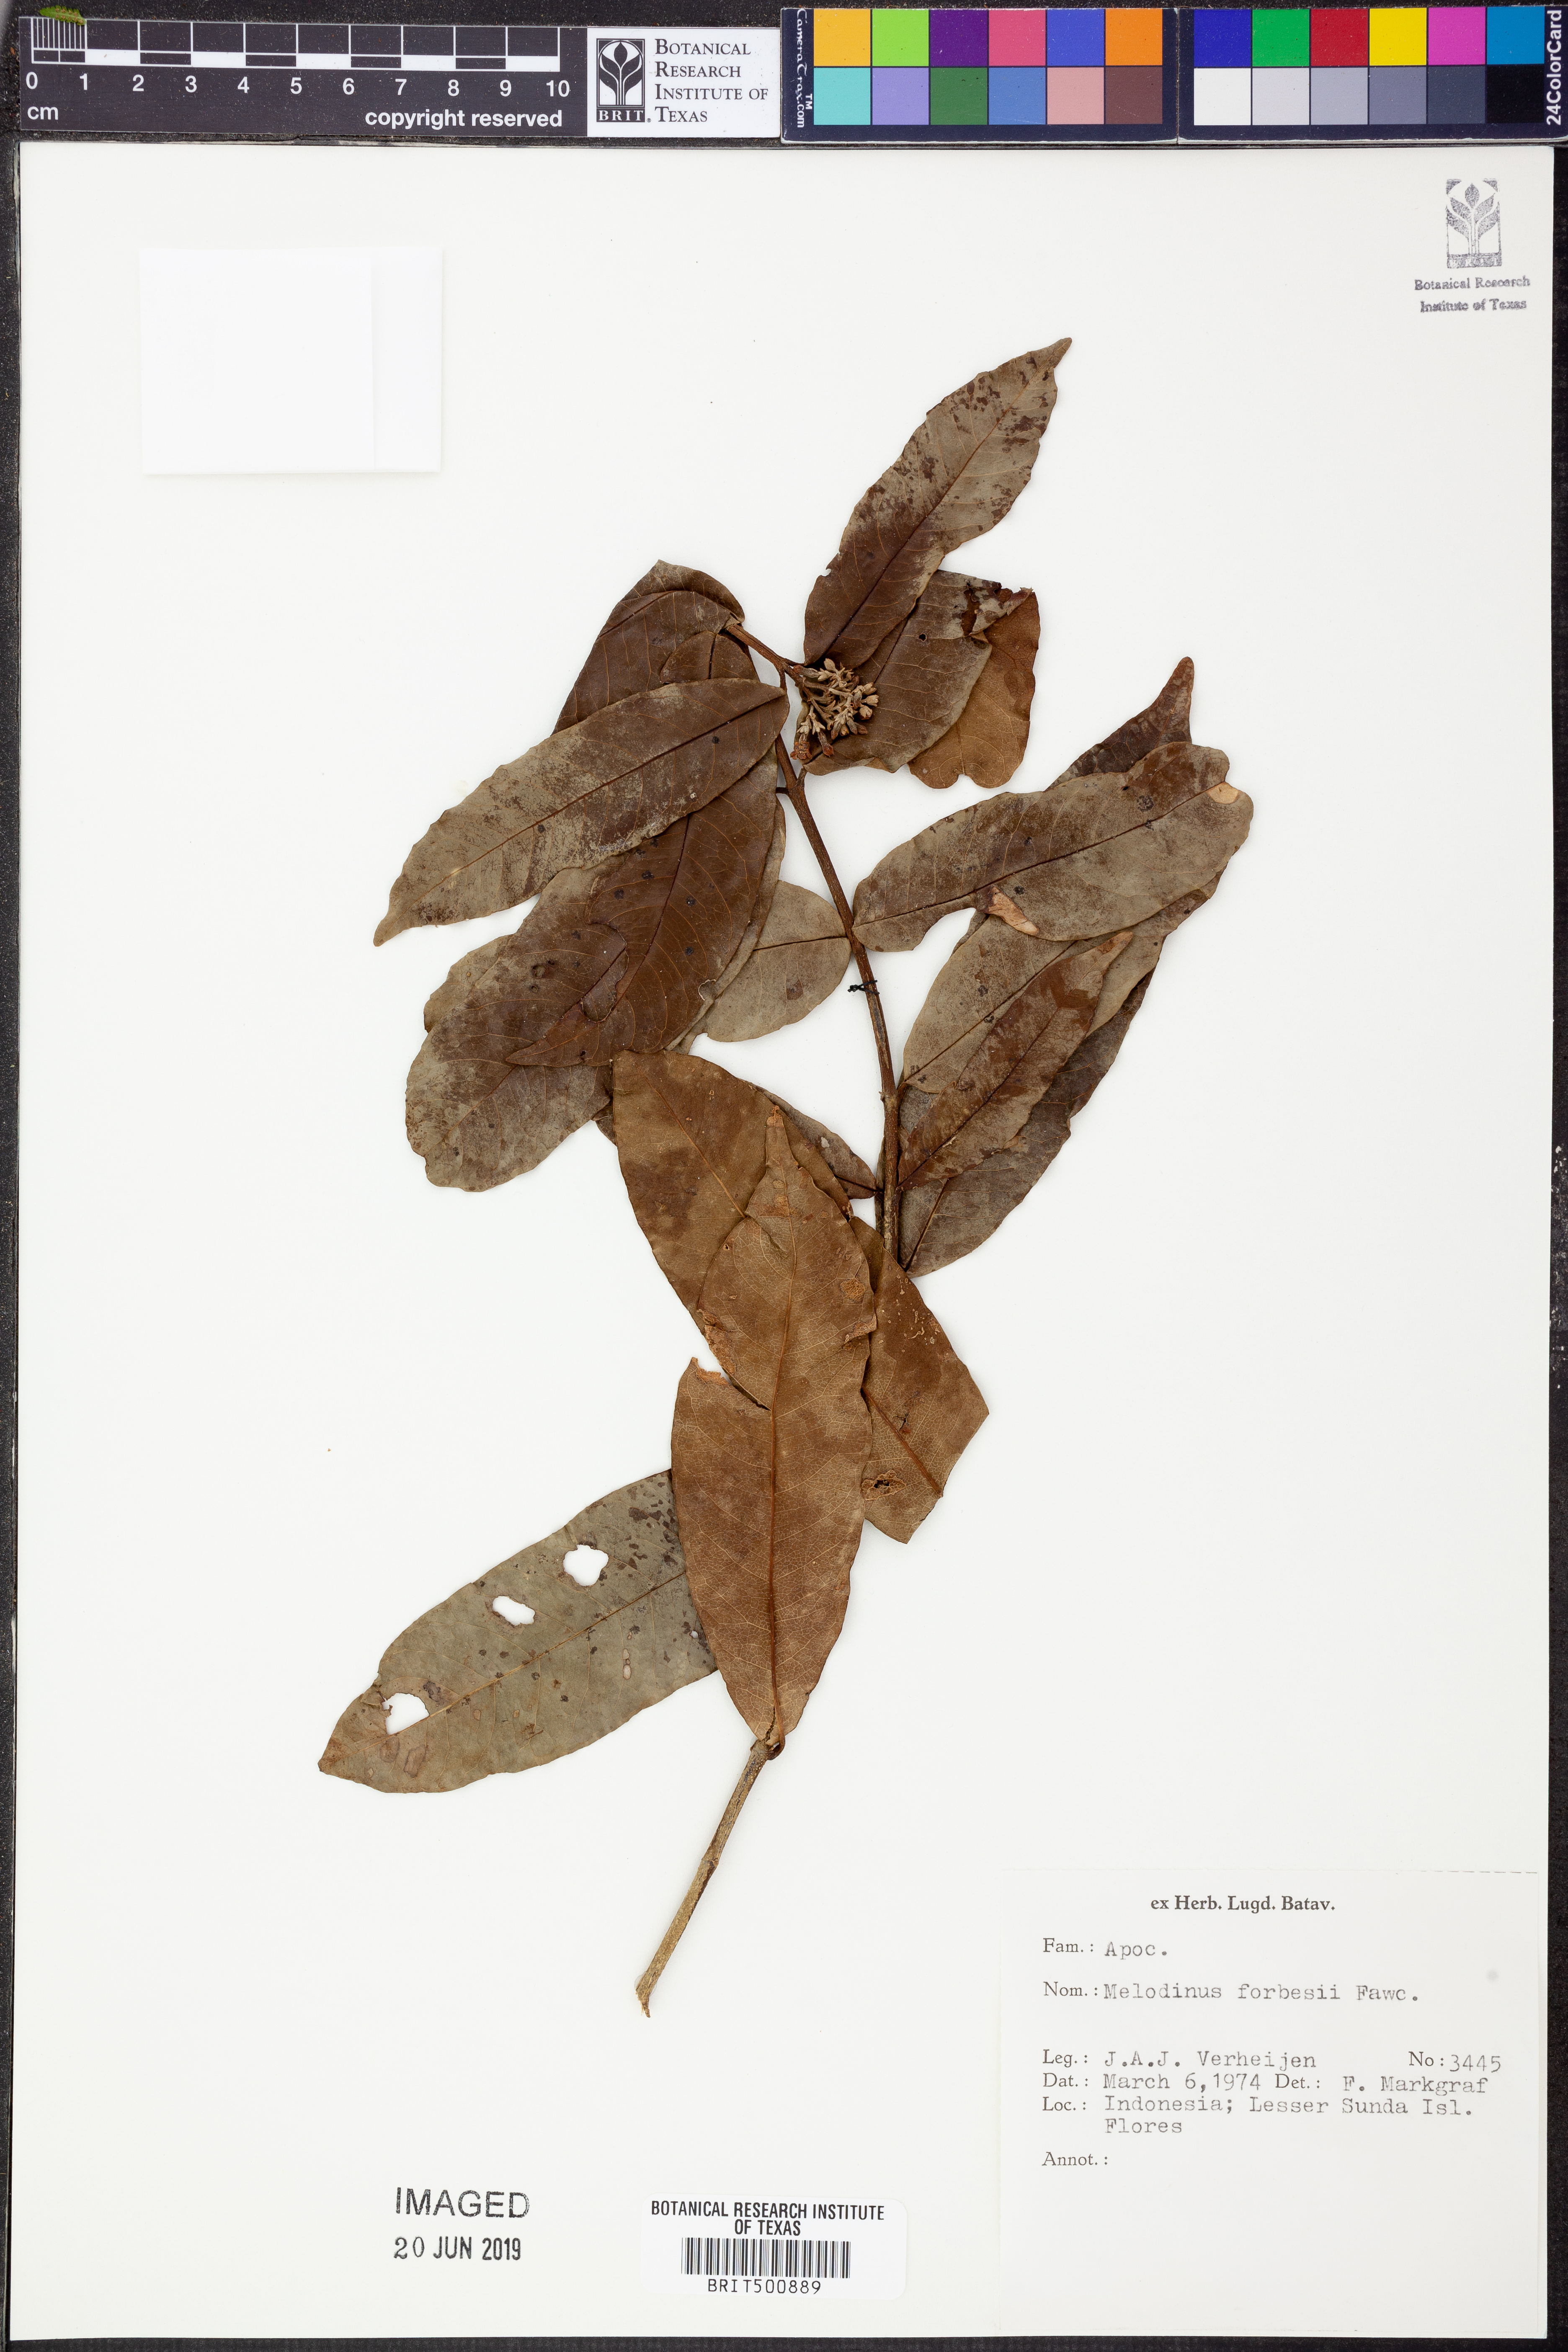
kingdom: Plantae
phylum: Tracheophyta
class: Magnoliopsida
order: Gentianales
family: Apocynaceae
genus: Melodinus
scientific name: Melodinus forbesii
